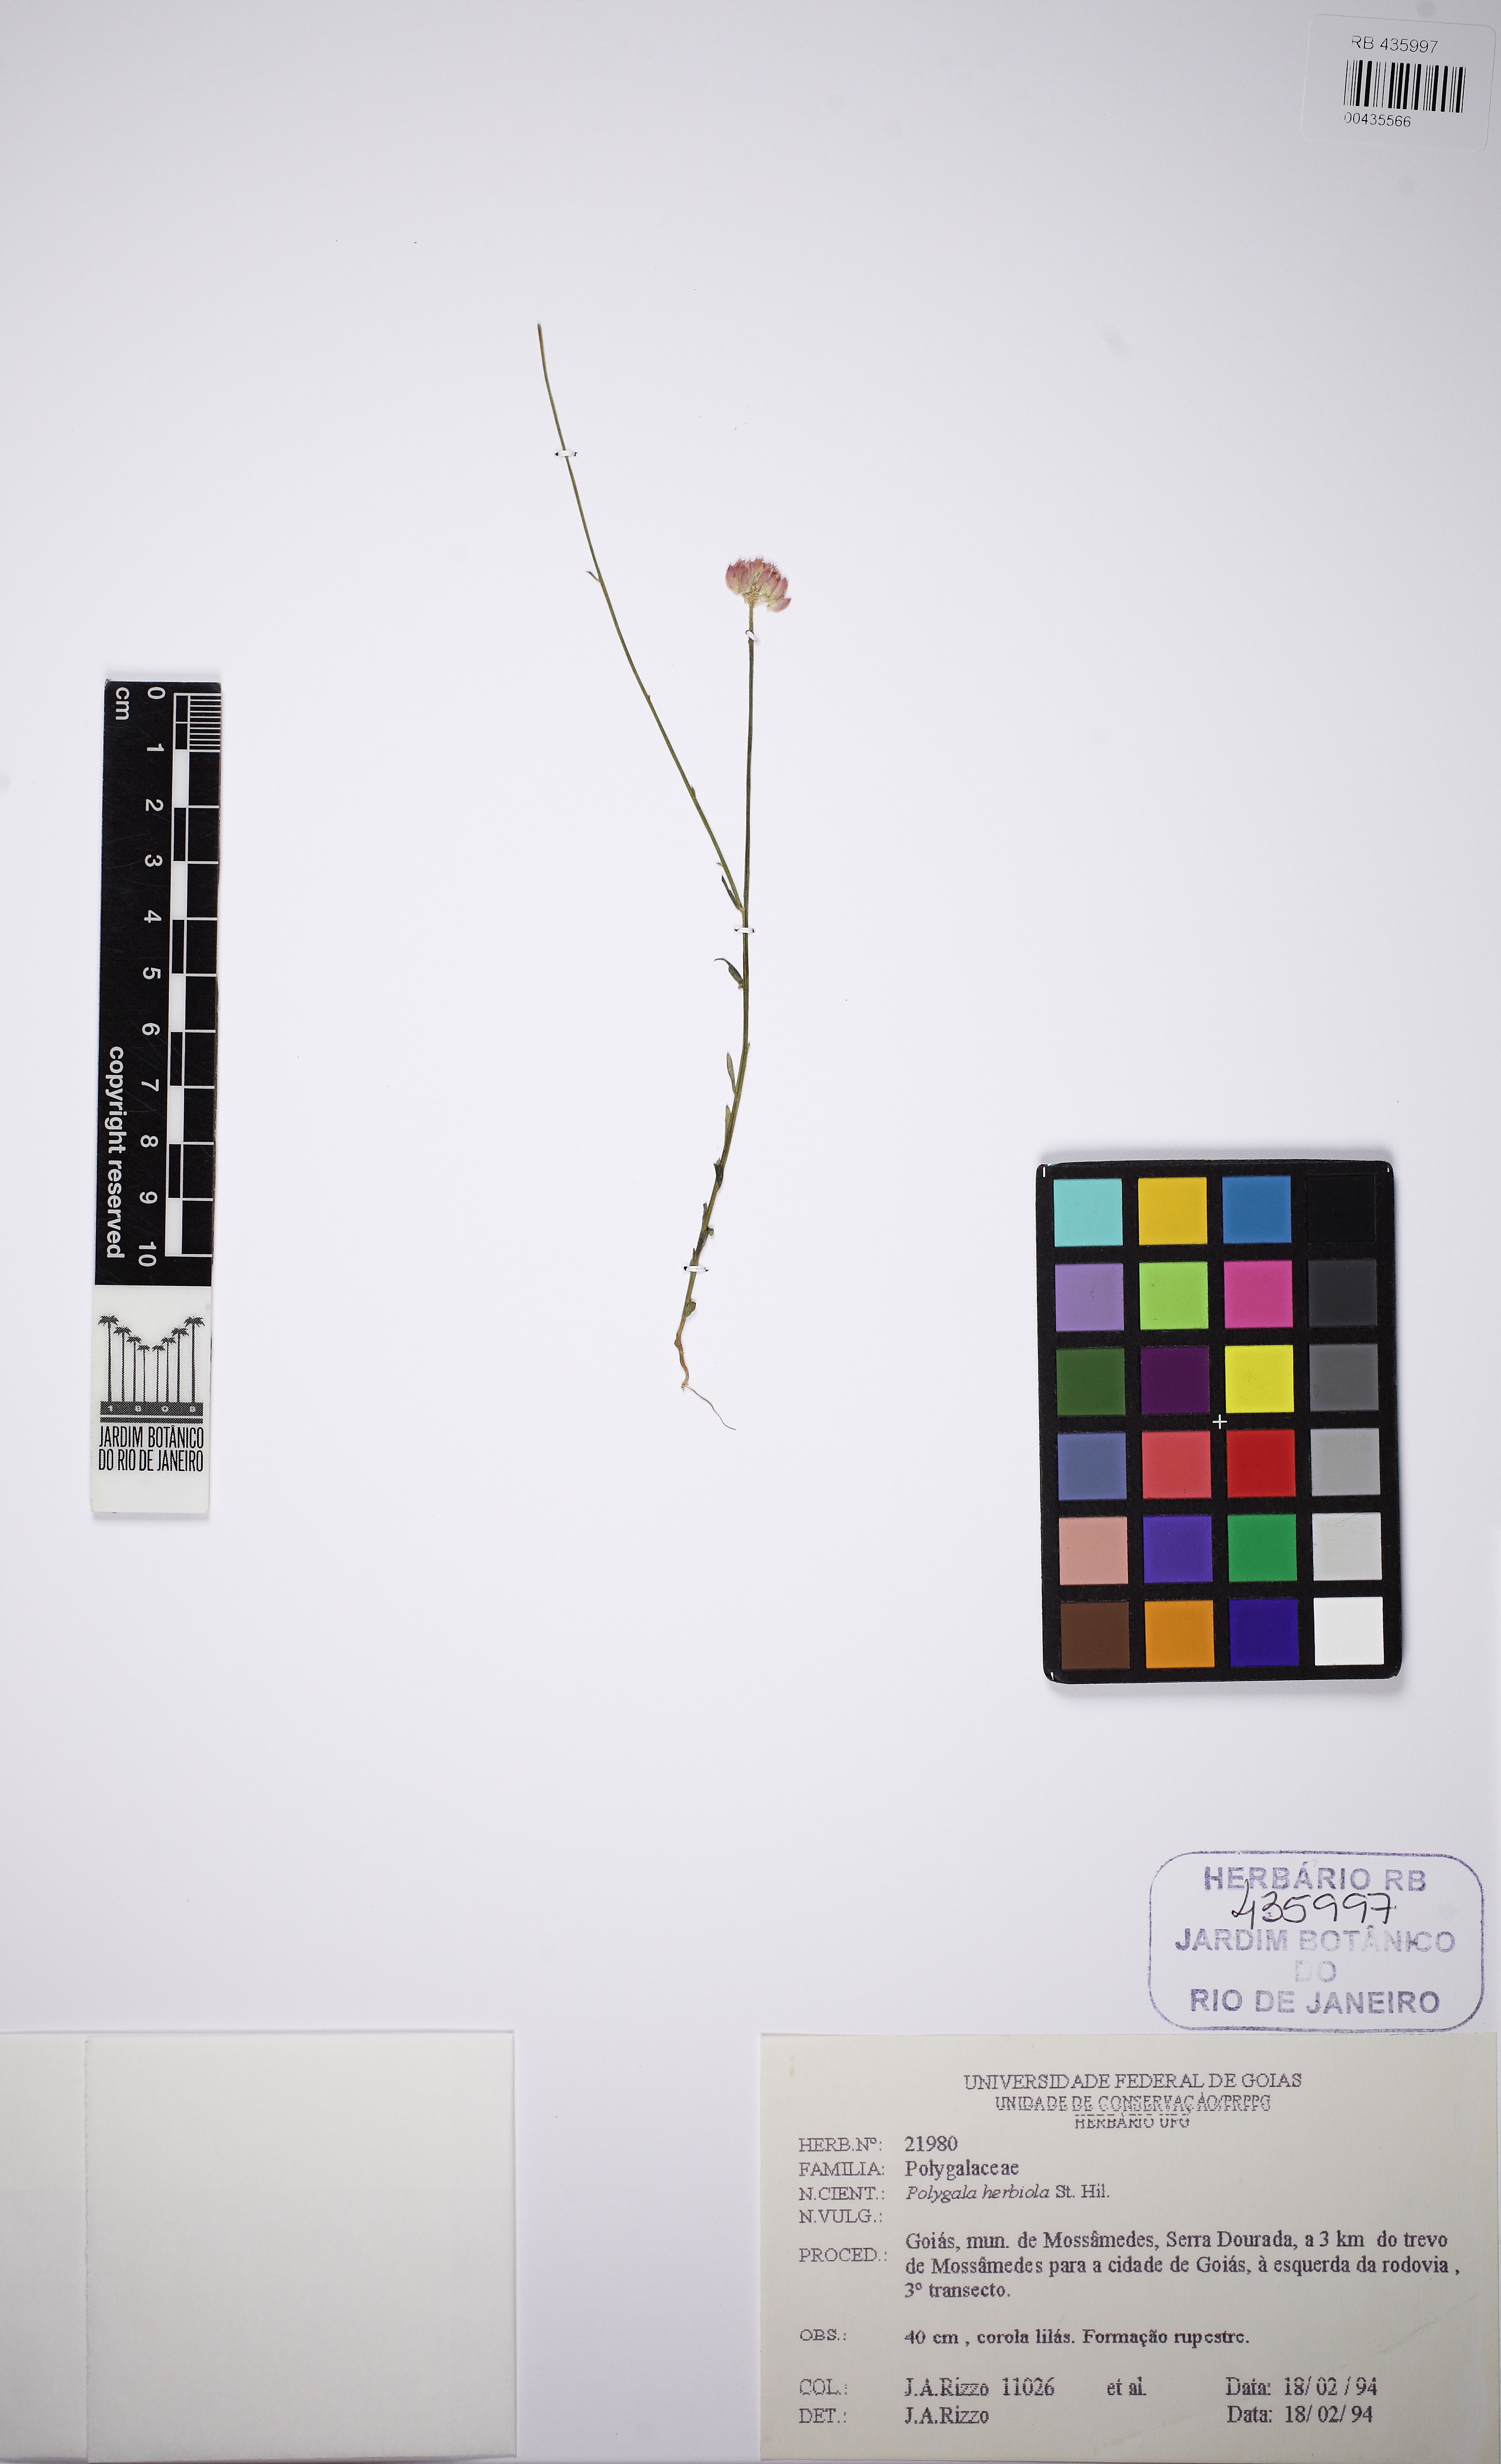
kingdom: Plantae
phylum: Tracheophyta
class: Magnoliopsida
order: Fabales
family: Polygalaceae
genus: Polygala
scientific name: Polygala longicaulis
